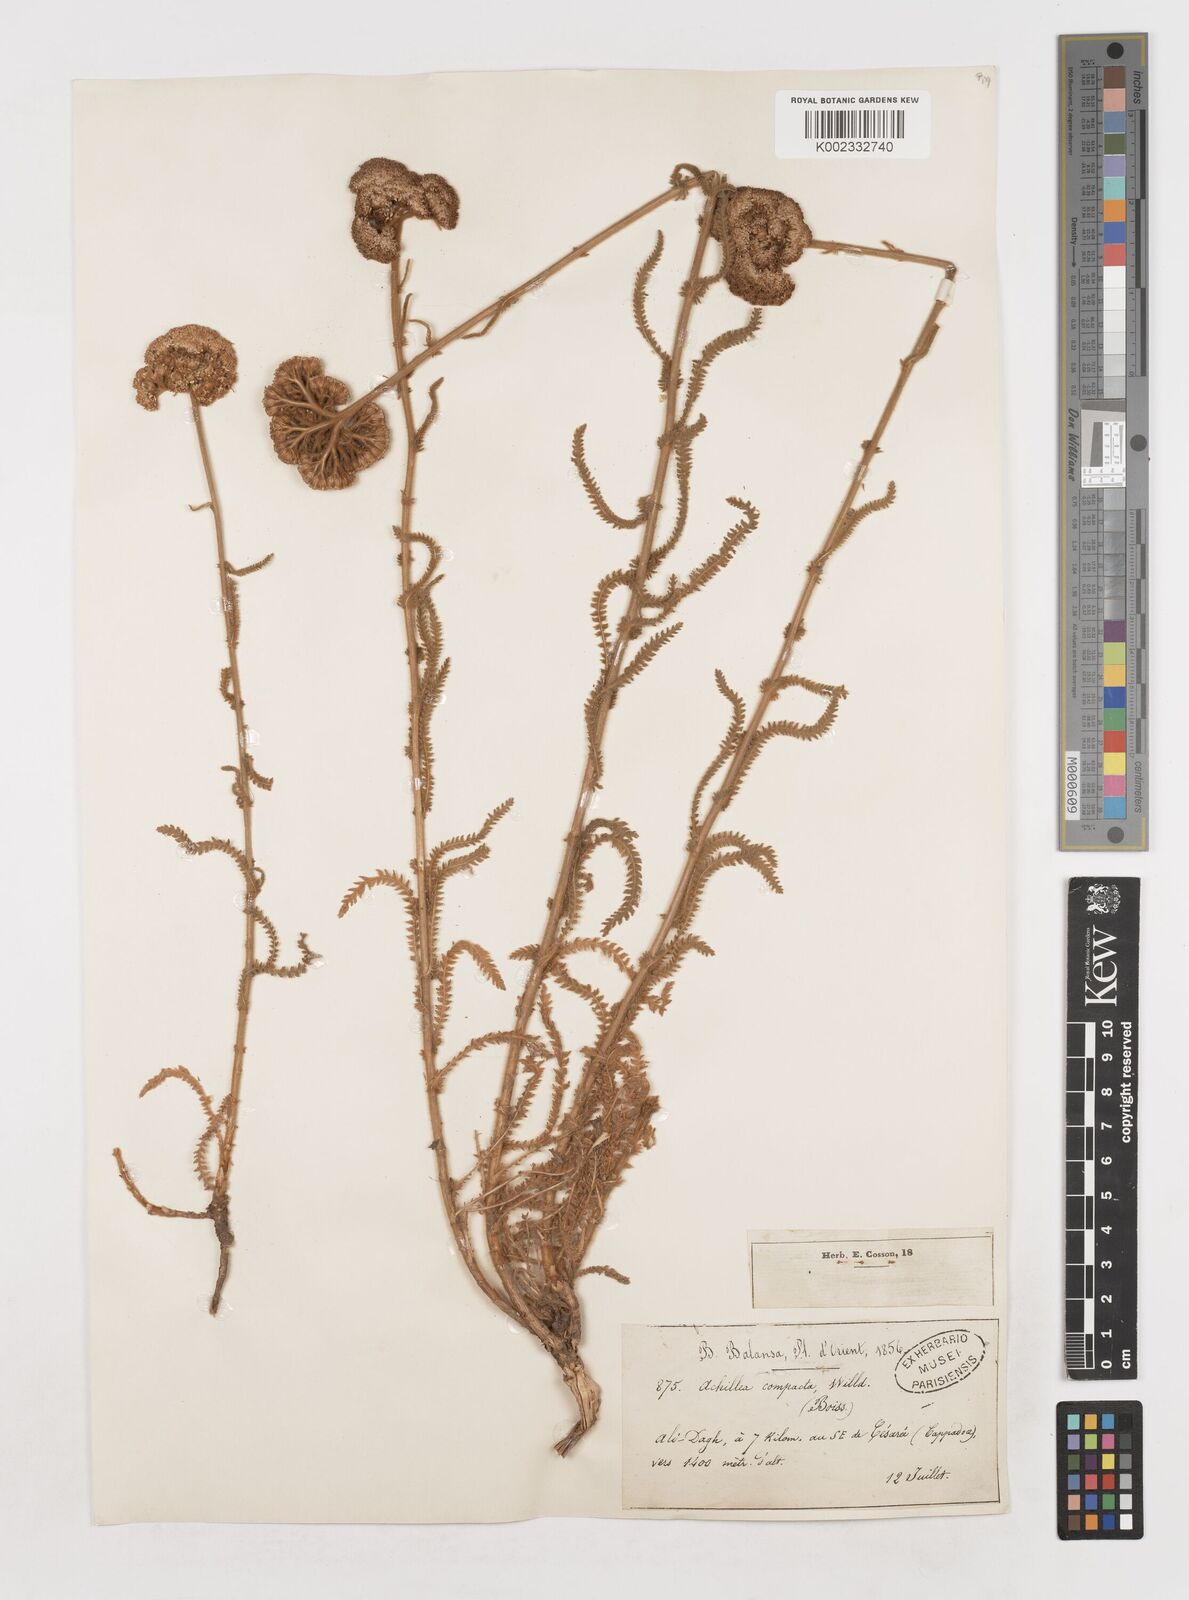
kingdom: Plantae
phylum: Tracheophyta
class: Magnoliopsida
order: Asterales
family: Asteraceae
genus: Achillea
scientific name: Achillea coarctata
